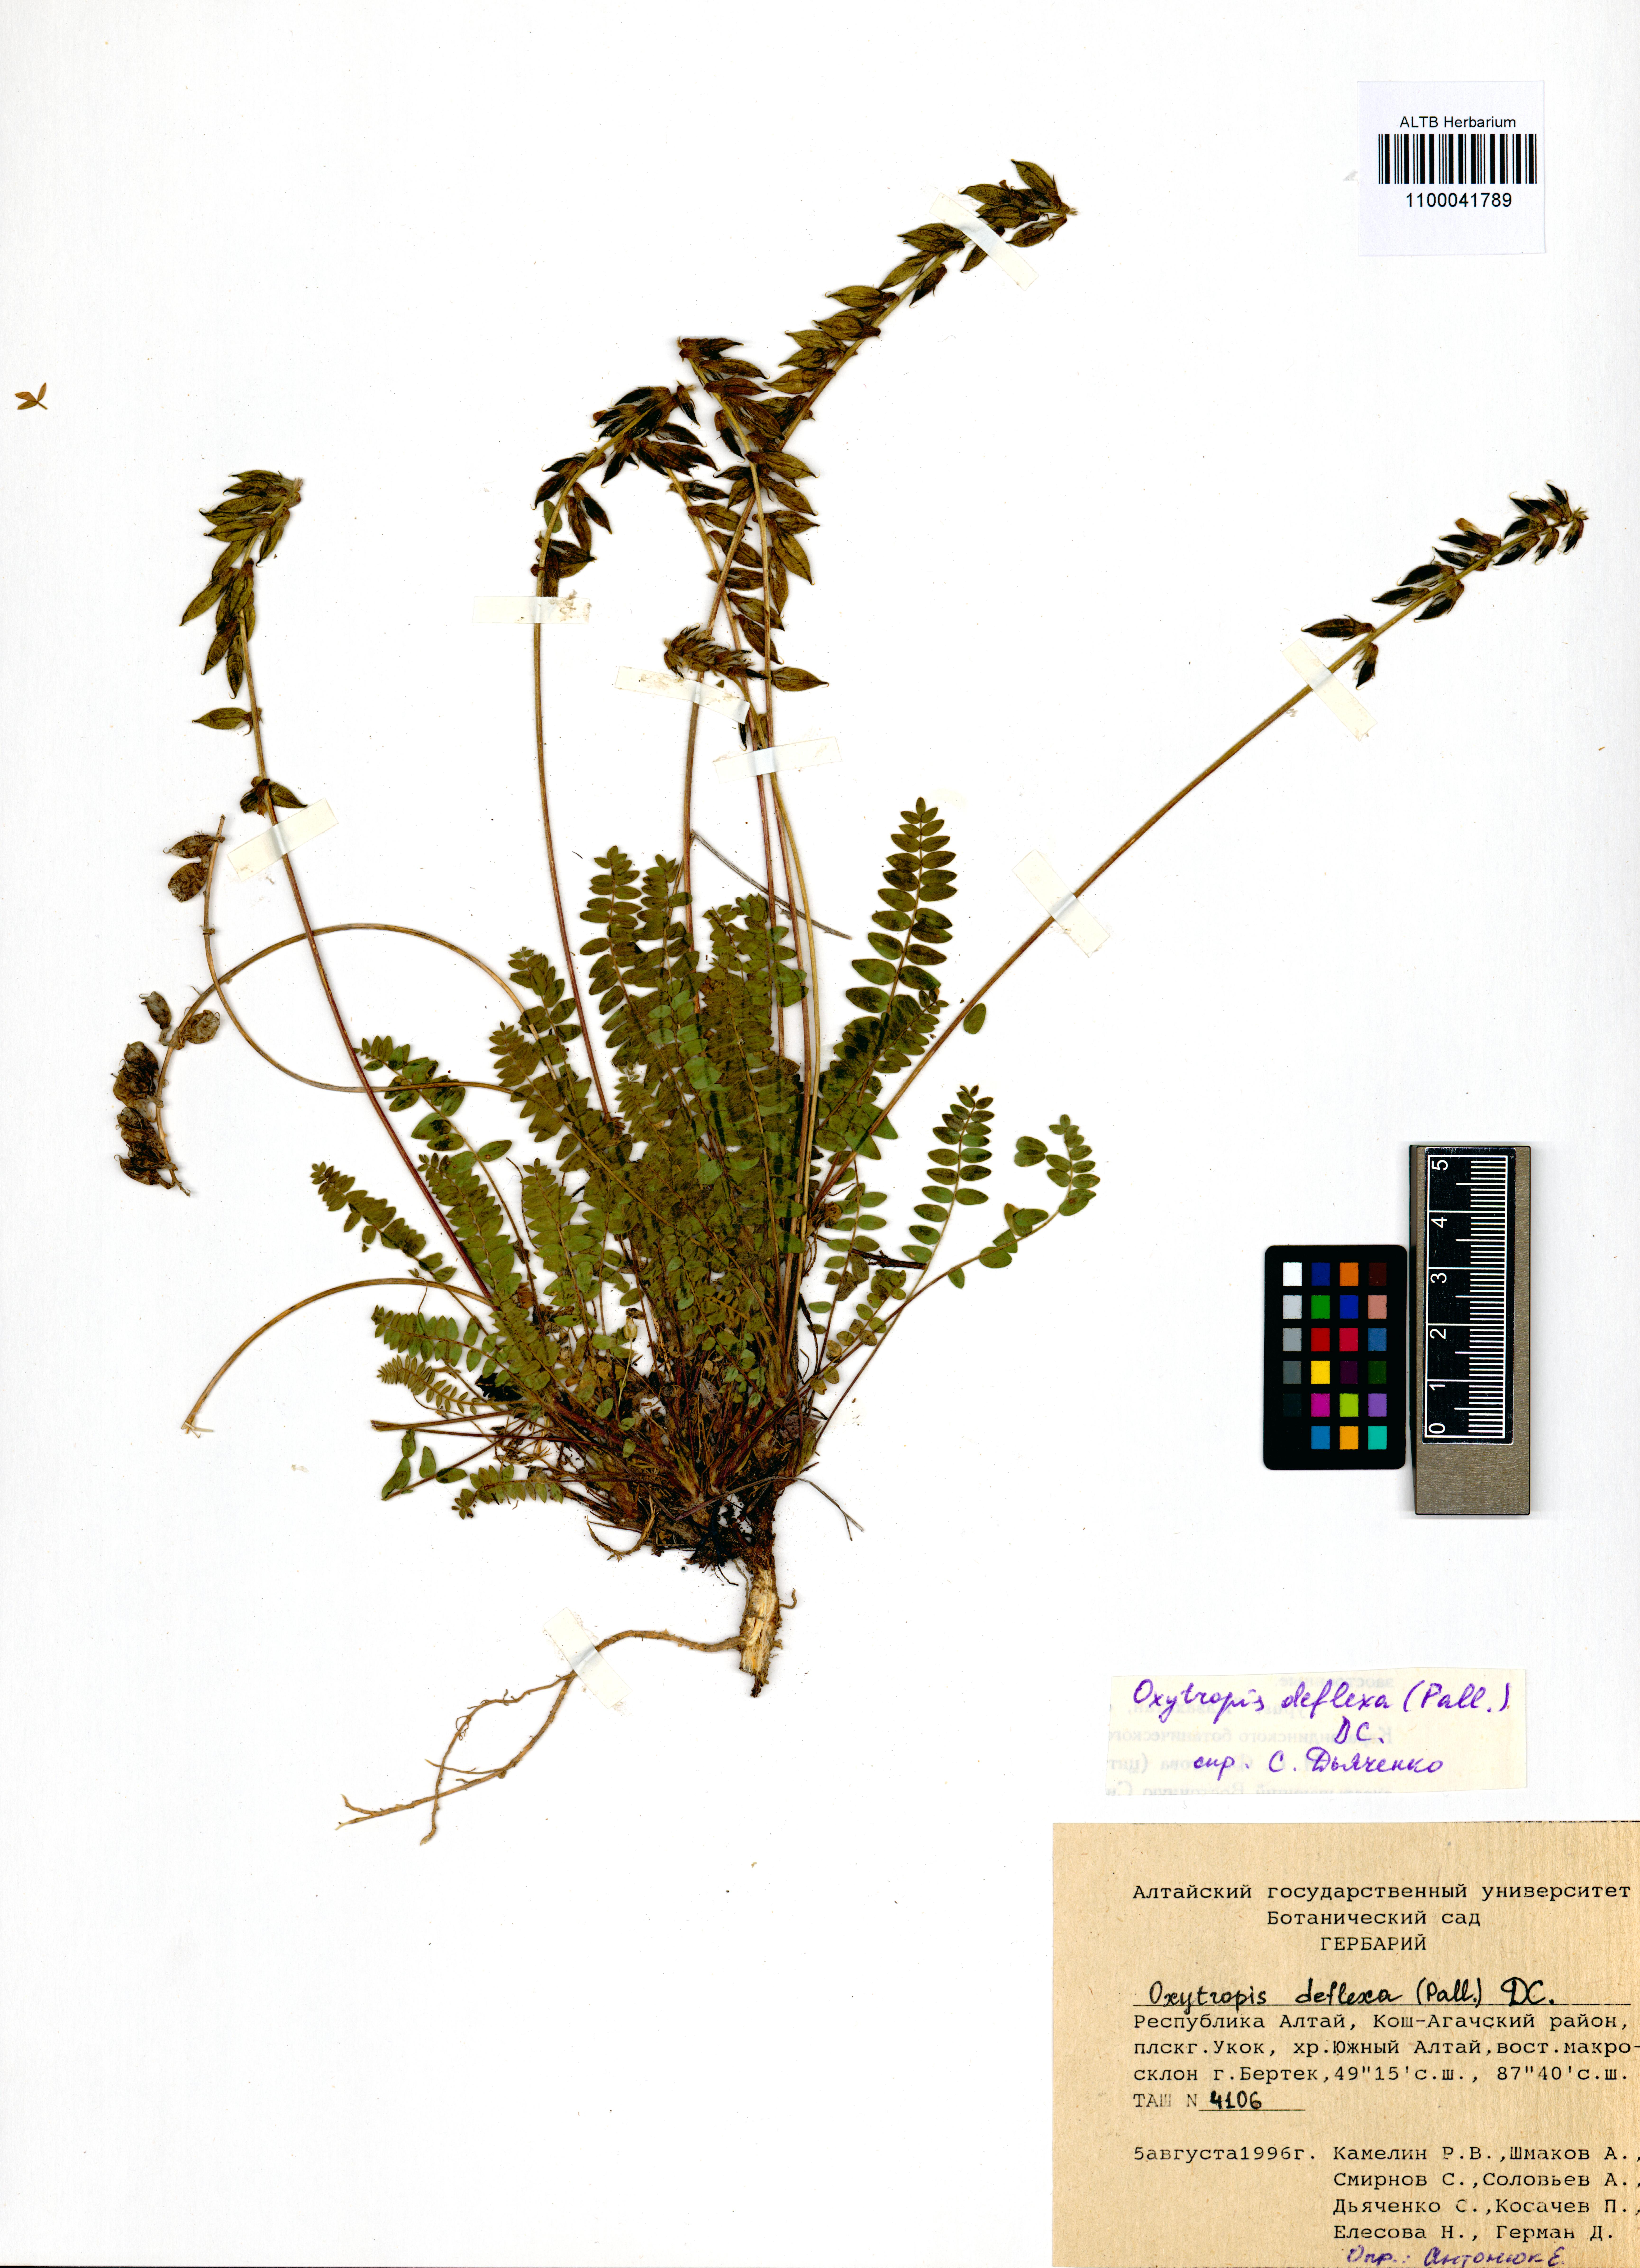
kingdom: Plantae
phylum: Tracheophyta
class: Magnoliopsida
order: Fabales
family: Fabaceae
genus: Oxytropis
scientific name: Oxytropis deflexa
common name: Stemmed oxytrope
